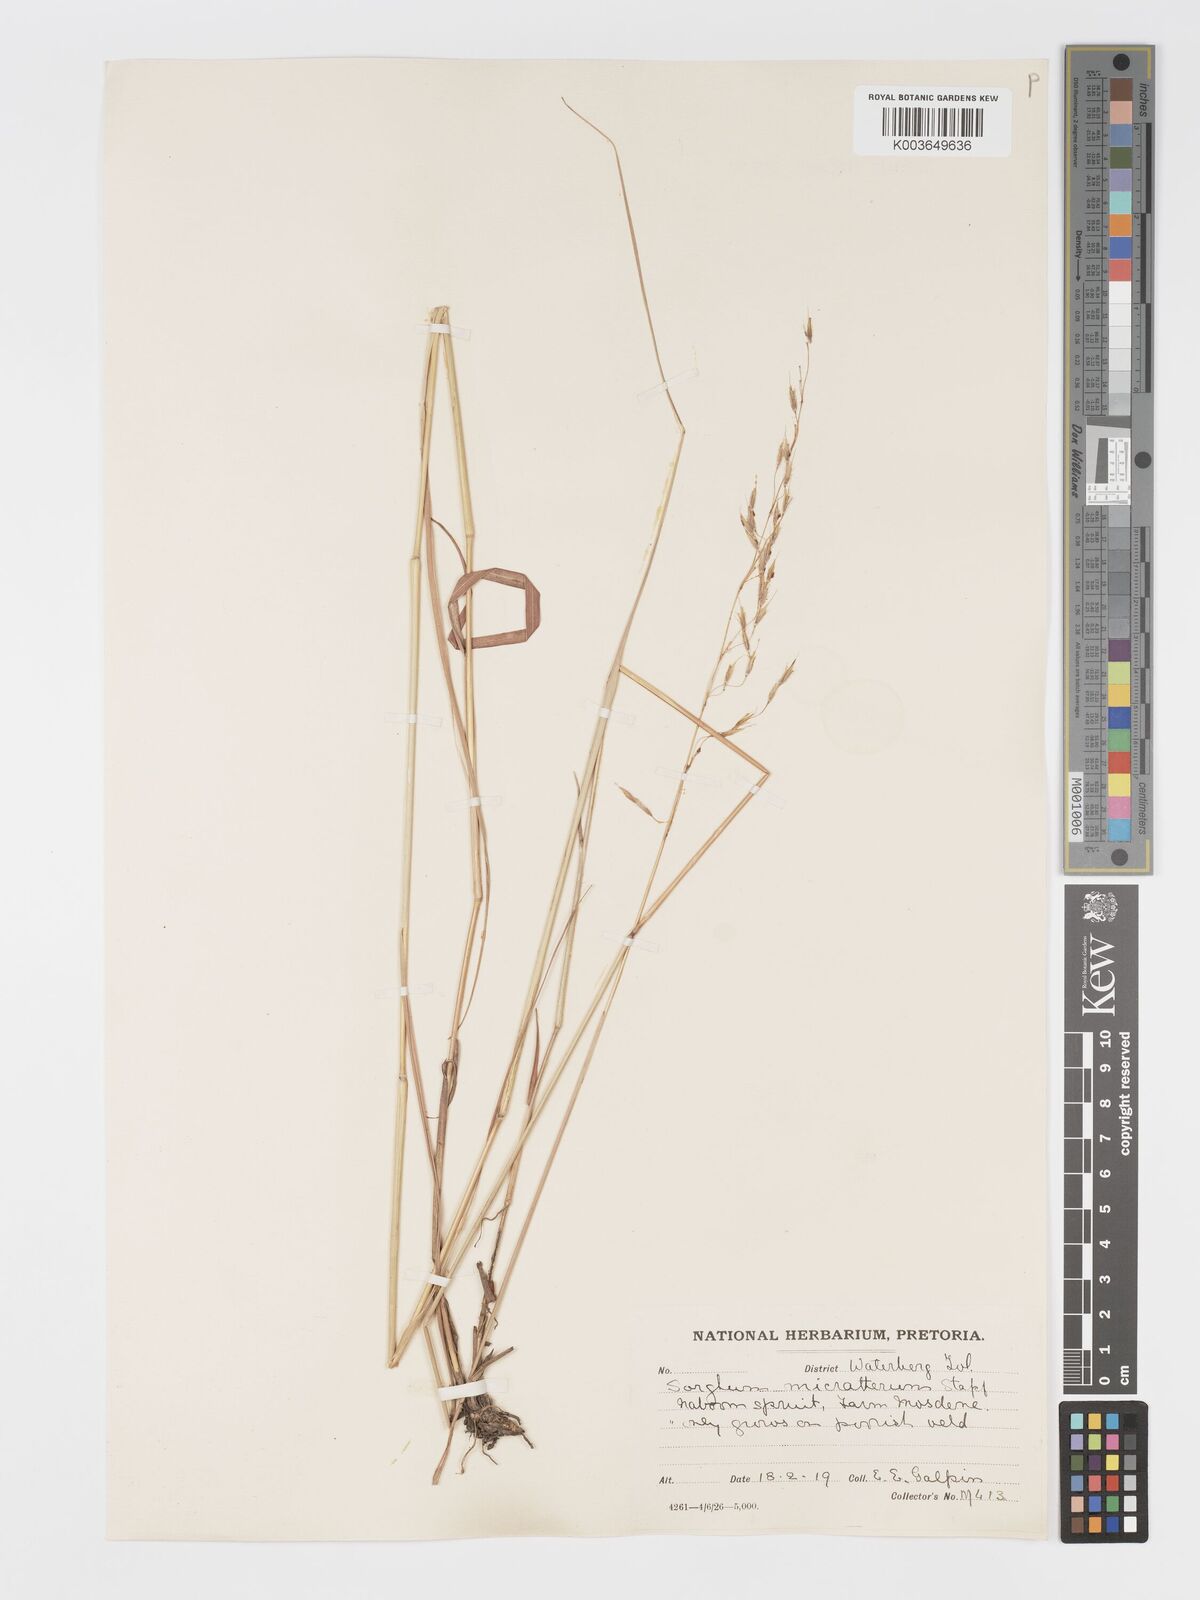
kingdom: Plantae
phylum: Tracheophyta
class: Liliopsida
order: Poales
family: Poaceae
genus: Sorghastrum
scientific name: Sorghastrum nudipes
